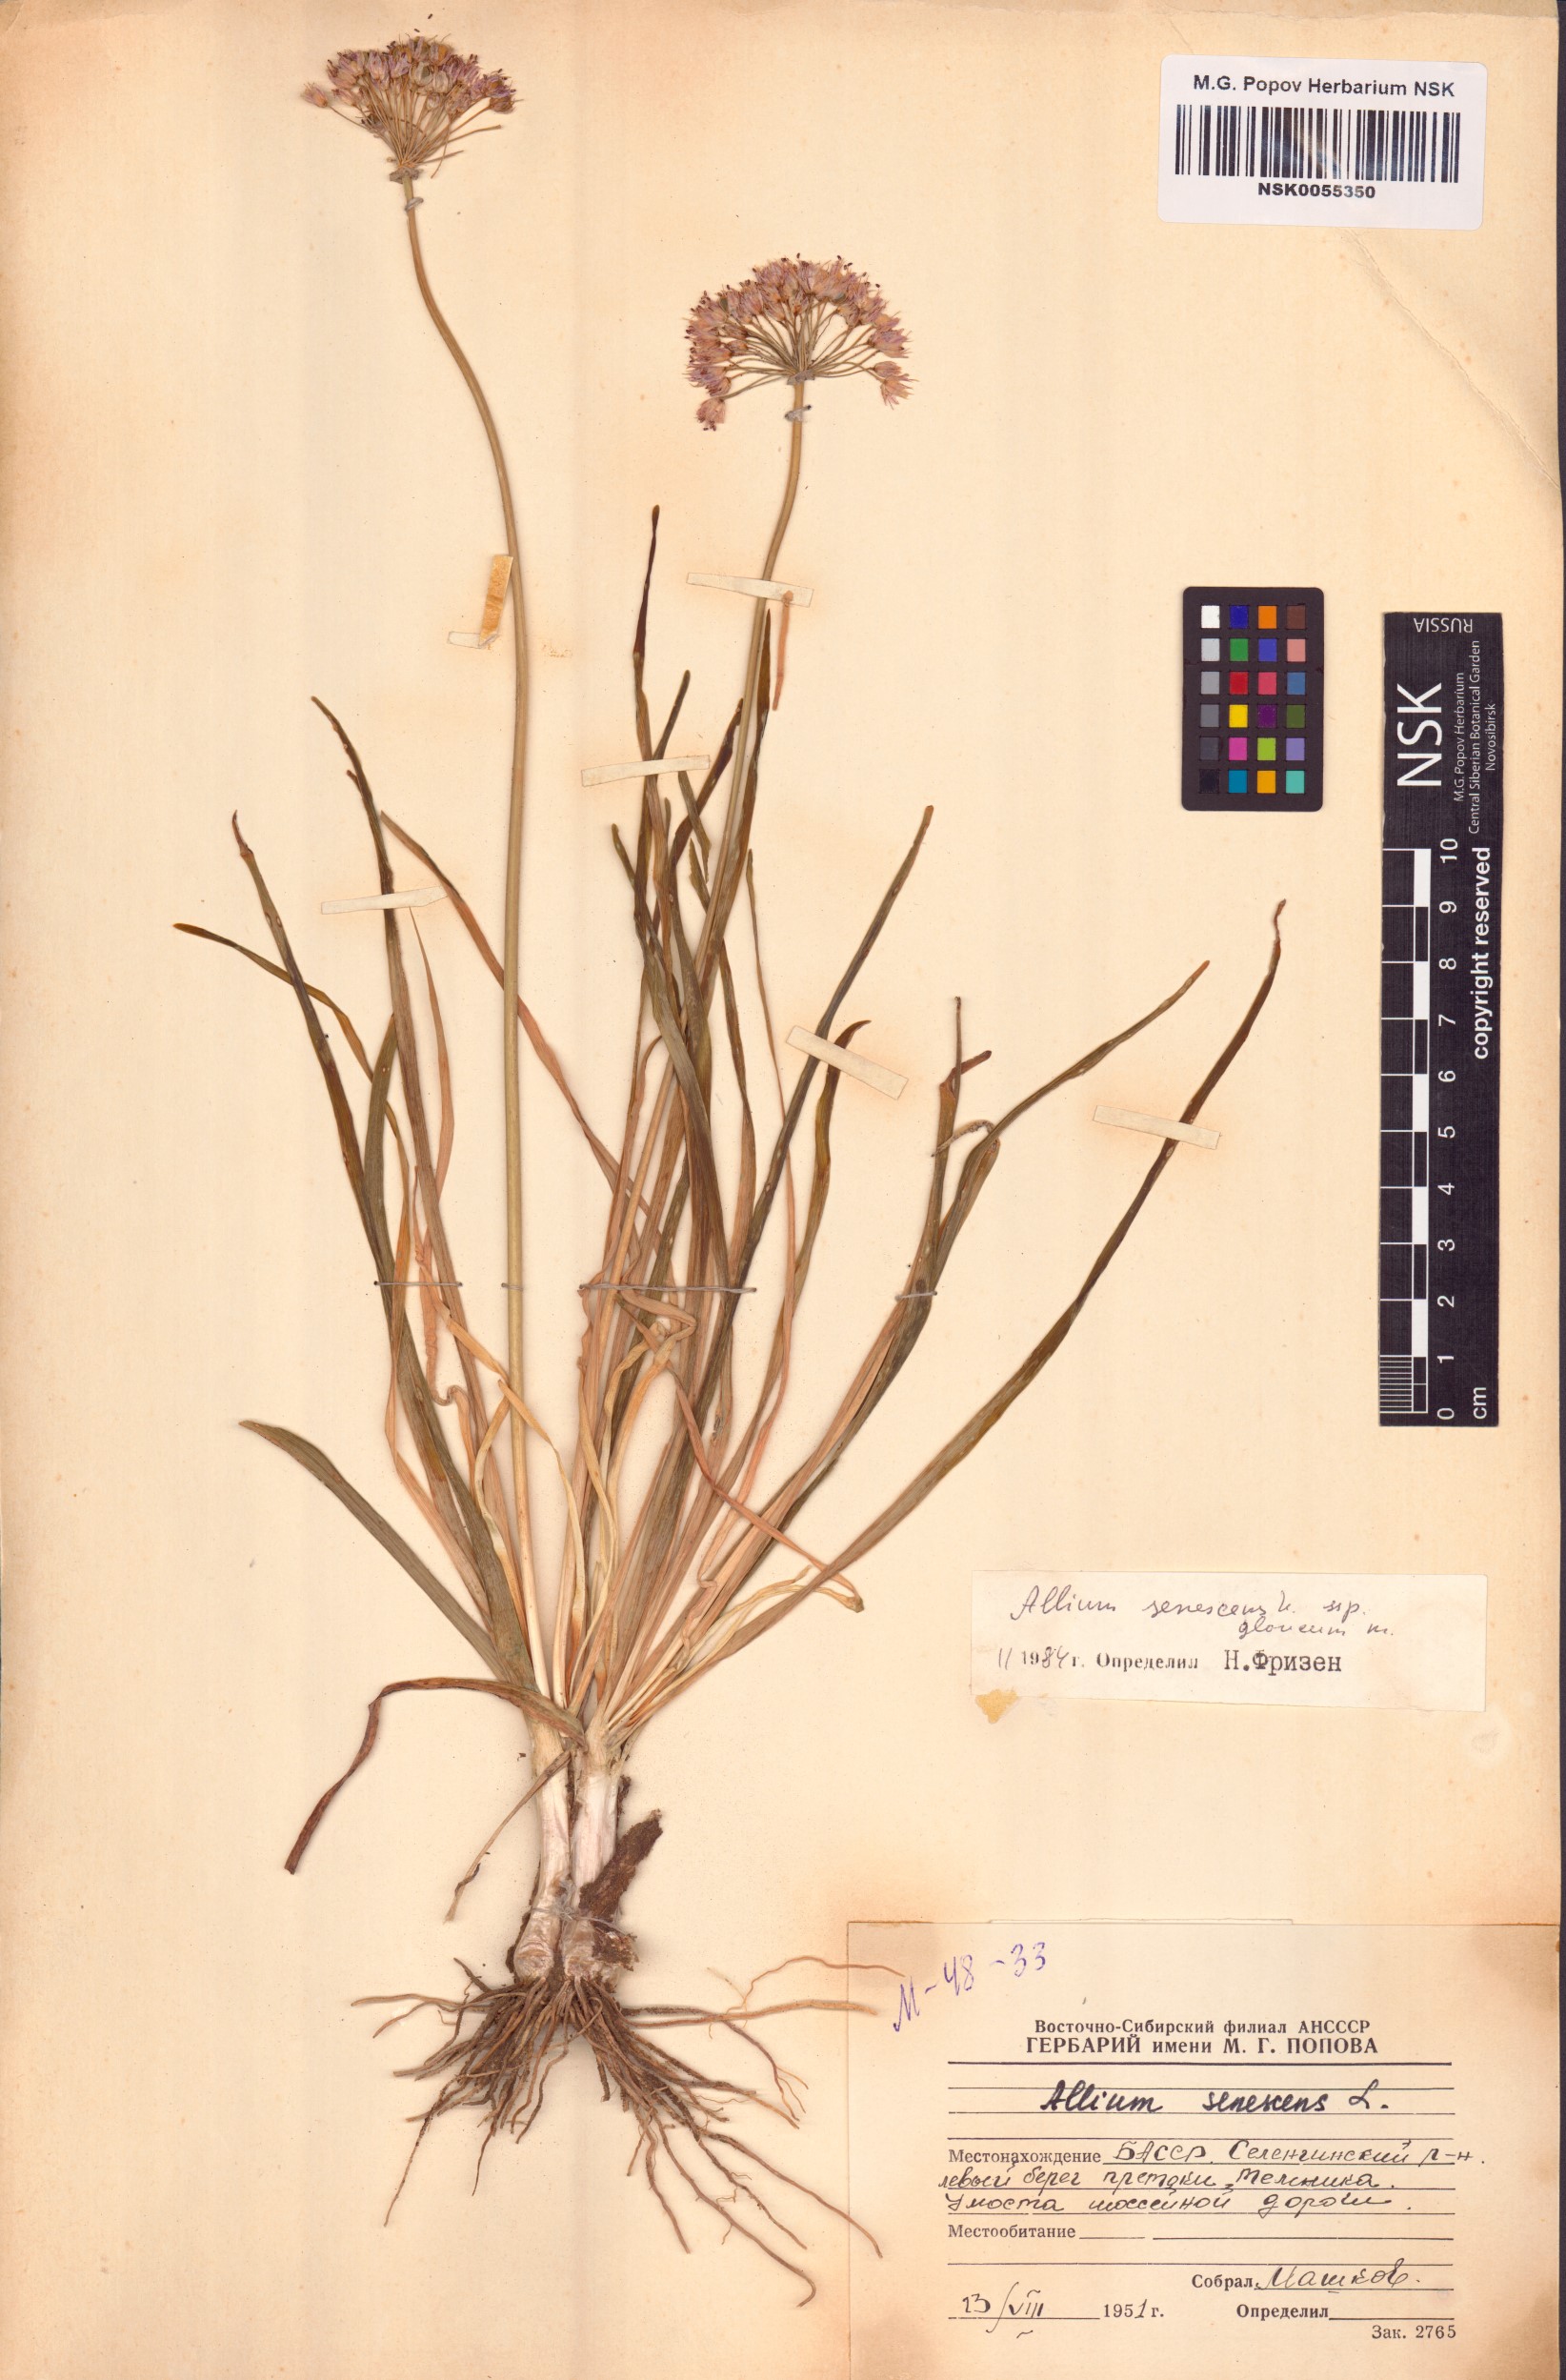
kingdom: Plantae
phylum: Tracheophyta
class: Liliopsida
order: Asparagales
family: Amaryllidaceae
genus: Allium
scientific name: Allium senescens
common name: German garlic
